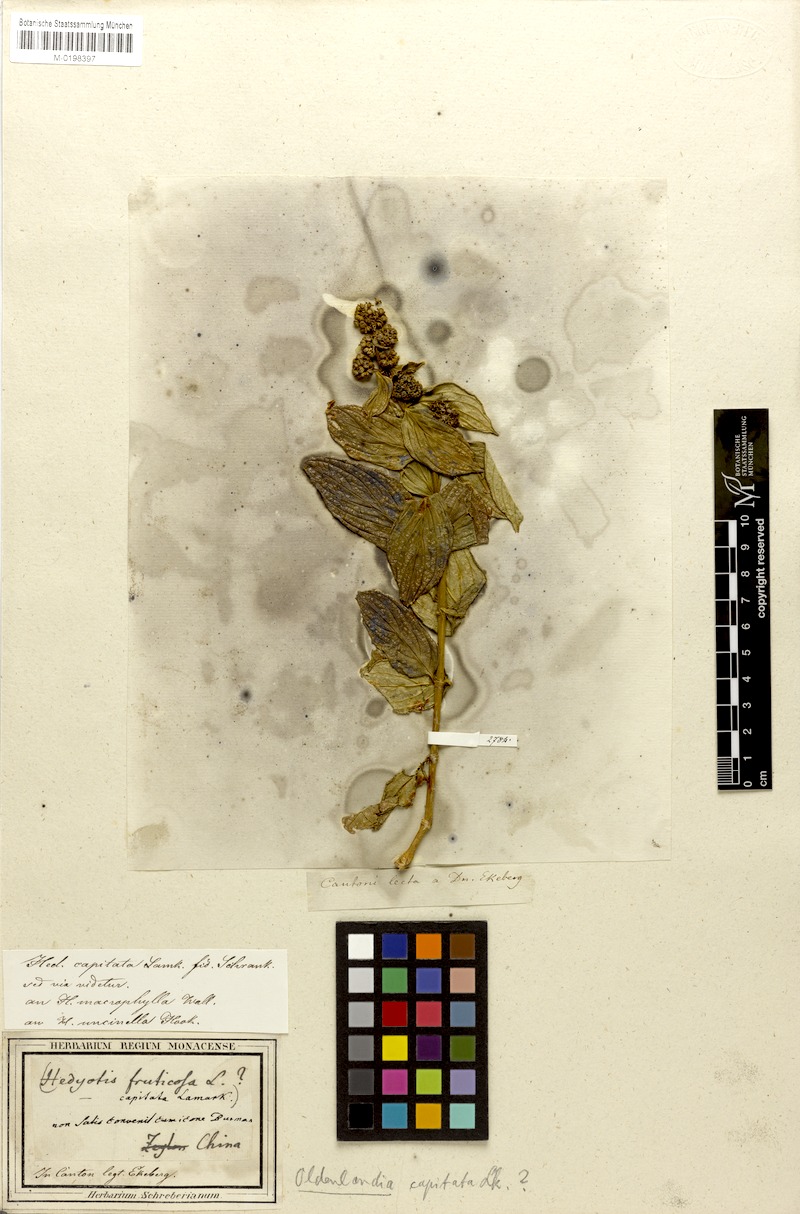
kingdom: Plantae
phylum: Tracheophyta
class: Magnoliopsida
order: Gentianales
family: Rubiaceae
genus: Oldenlandia
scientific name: Oldenlandia ichthyoderma
